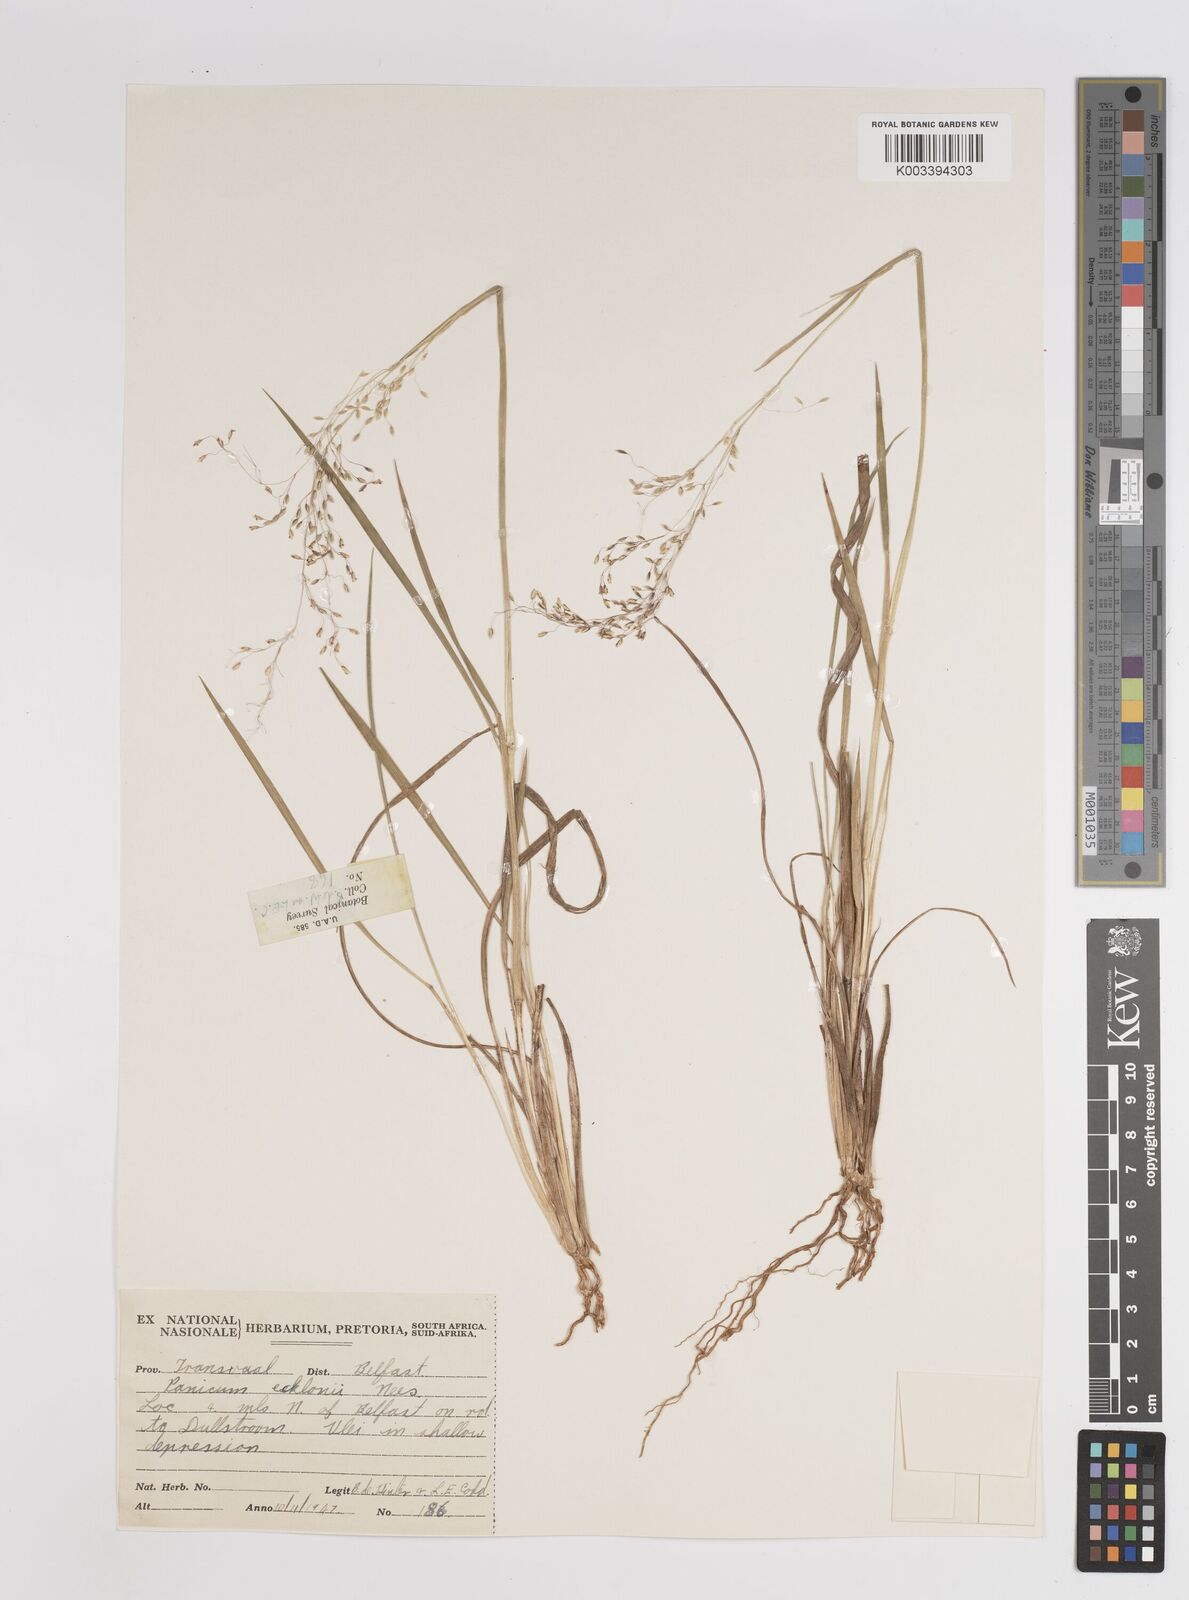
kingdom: Plantae
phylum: Tracheophyta
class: Liliopsida
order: Poales
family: Poaceae
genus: Adenochloa
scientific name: Adenochloa ecklonii
